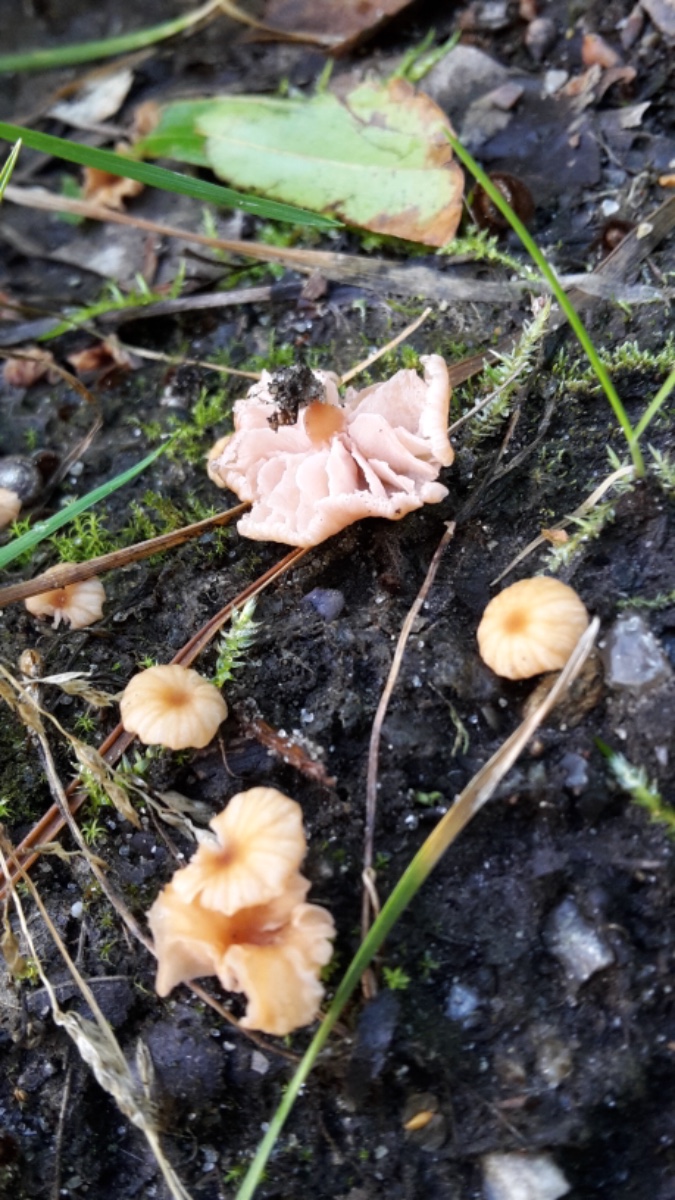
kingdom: Fungi
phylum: Basidiomycota
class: Agaricomycetes
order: Agaricales
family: Hydnangiaceae
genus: Laccaria
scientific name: Laccaria tortilis
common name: krybende ametysthat
